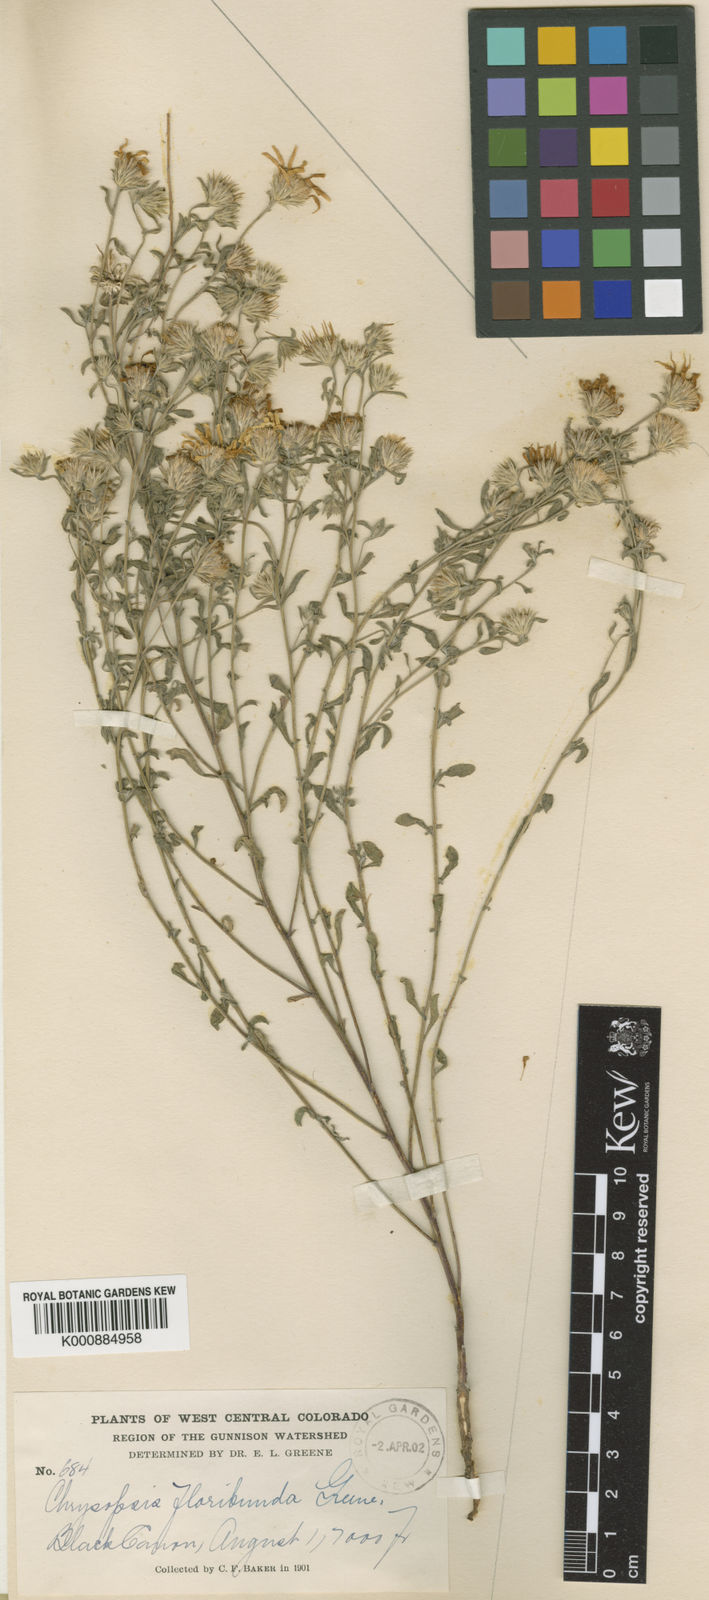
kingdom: Plantae
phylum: Tracheophyta
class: Magnoliopsida
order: Asterales
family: Asteraceae
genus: Heterotheca
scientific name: Heterotheca grandiflora
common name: Telegraphweed
